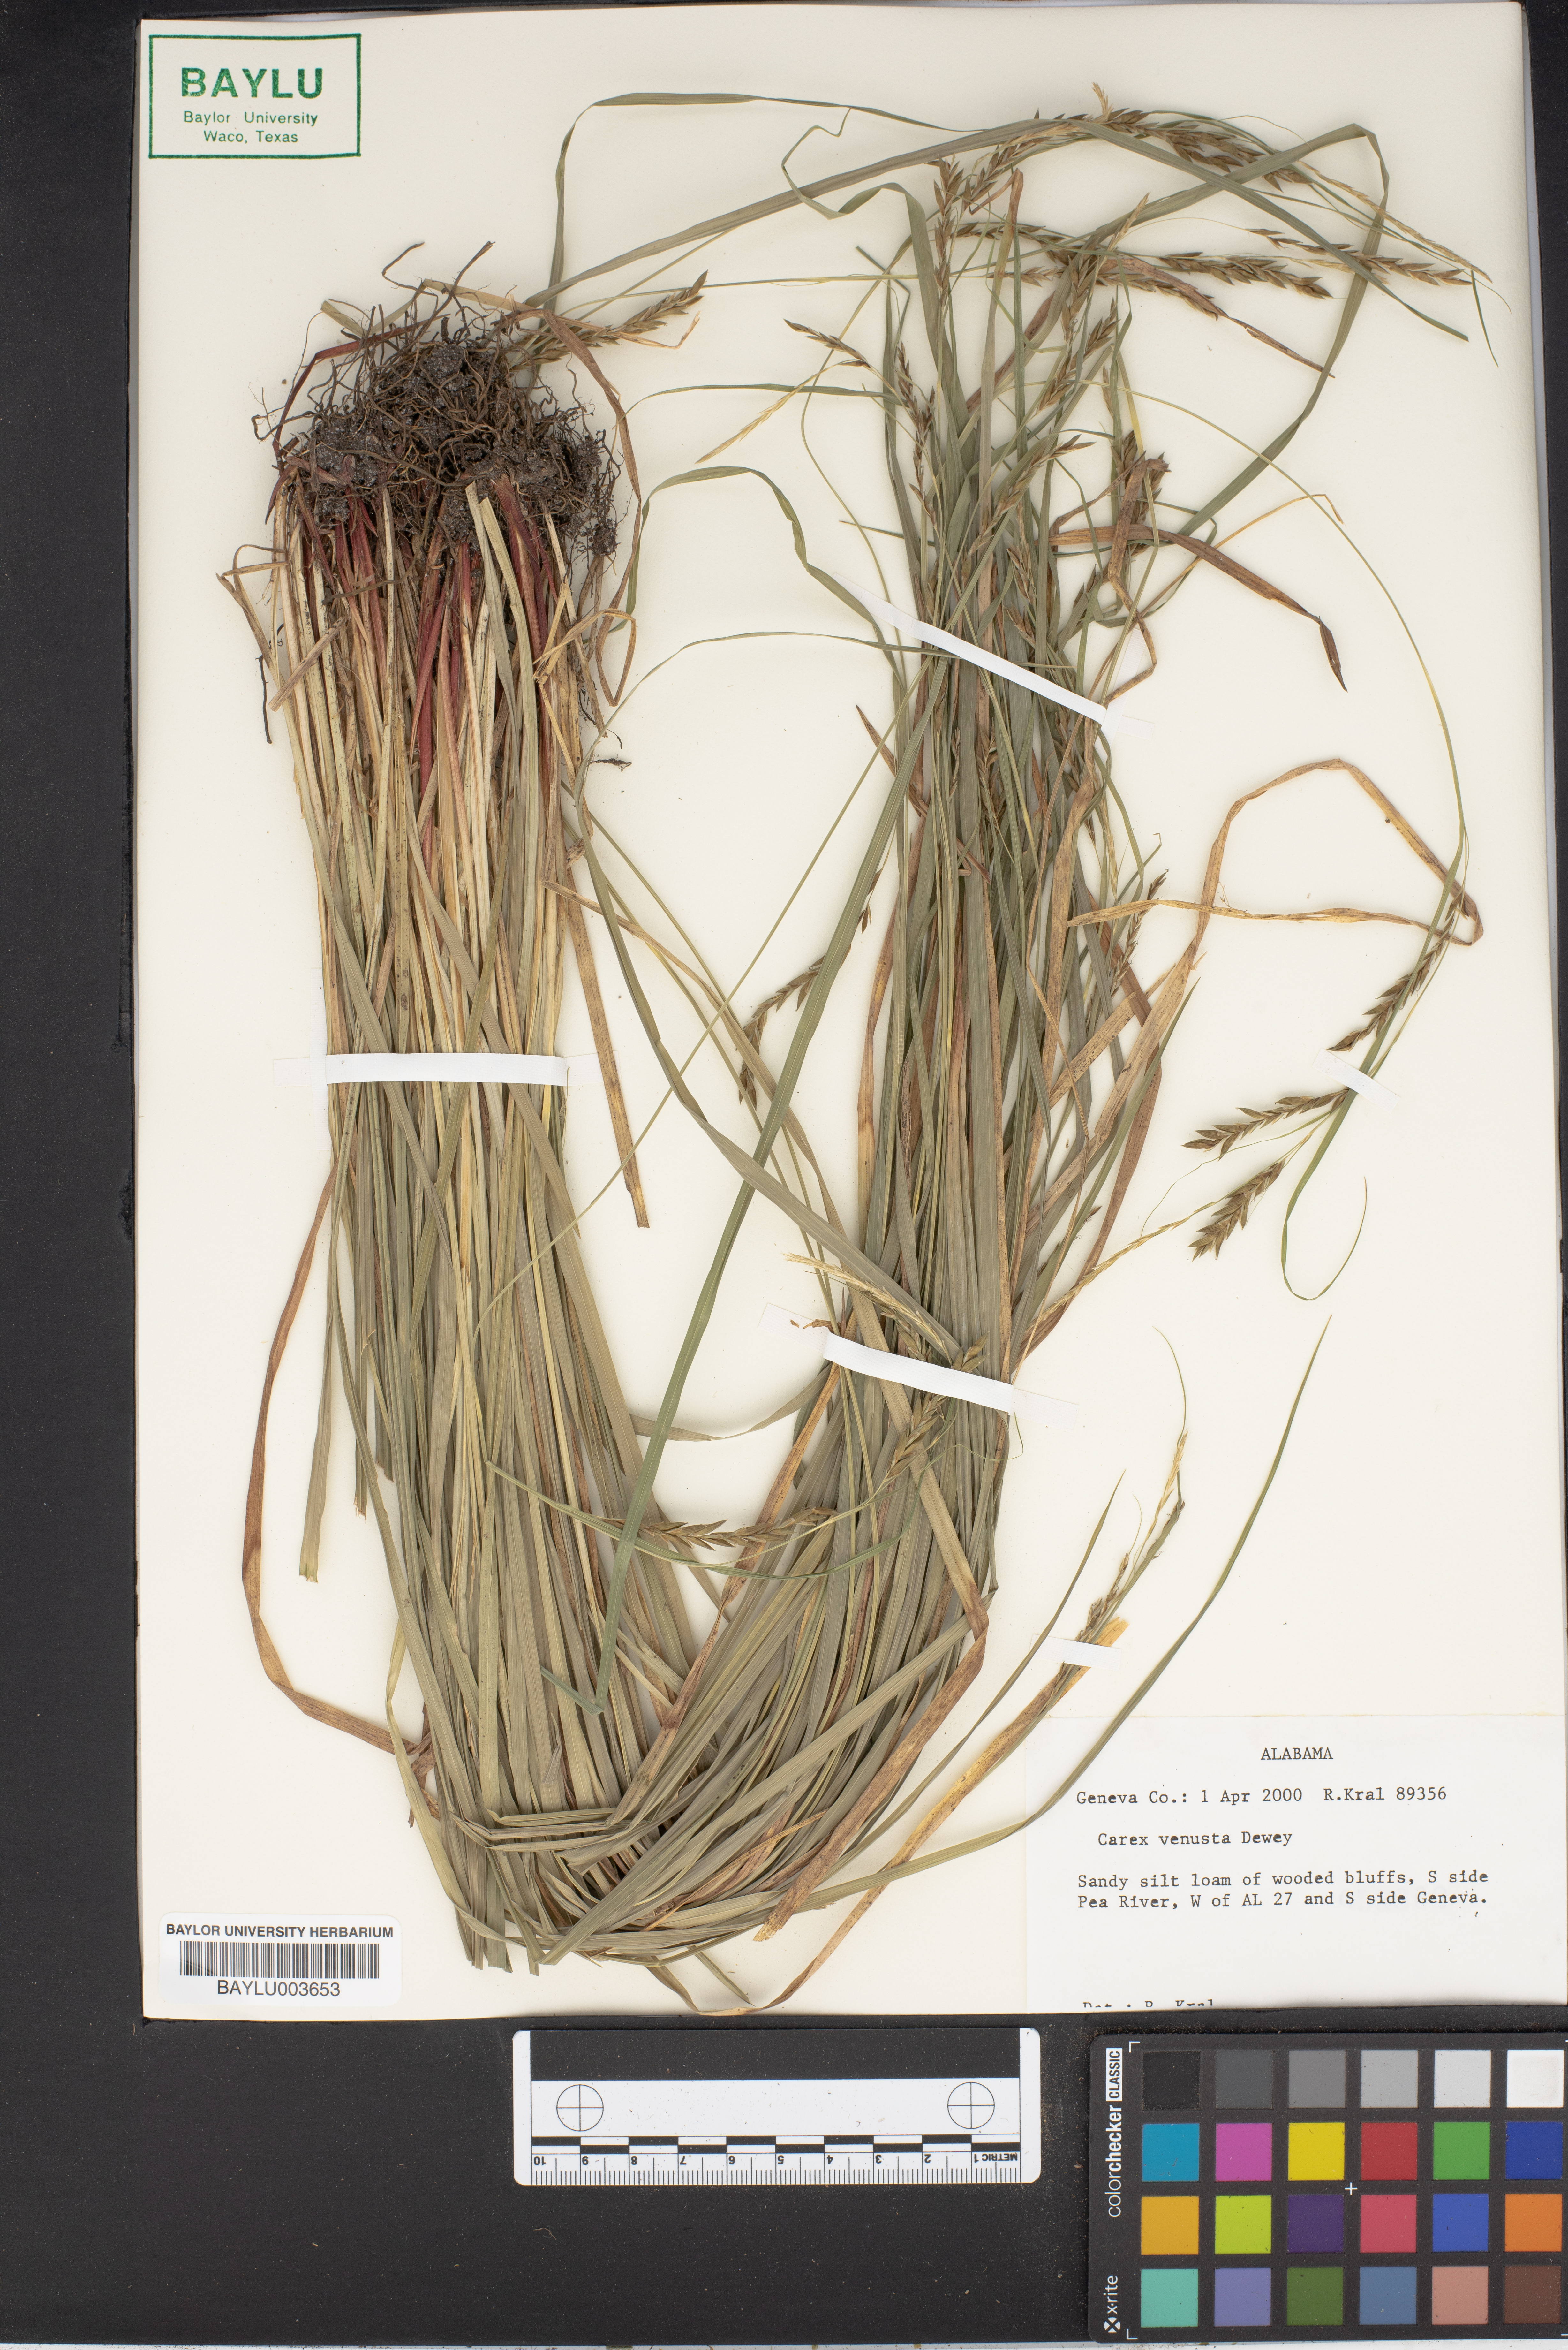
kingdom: Plantae
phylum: Tracheophyta
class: Liliopsida
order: Poales
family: Cyperaceae
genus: Carex
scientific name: Carex venusta
